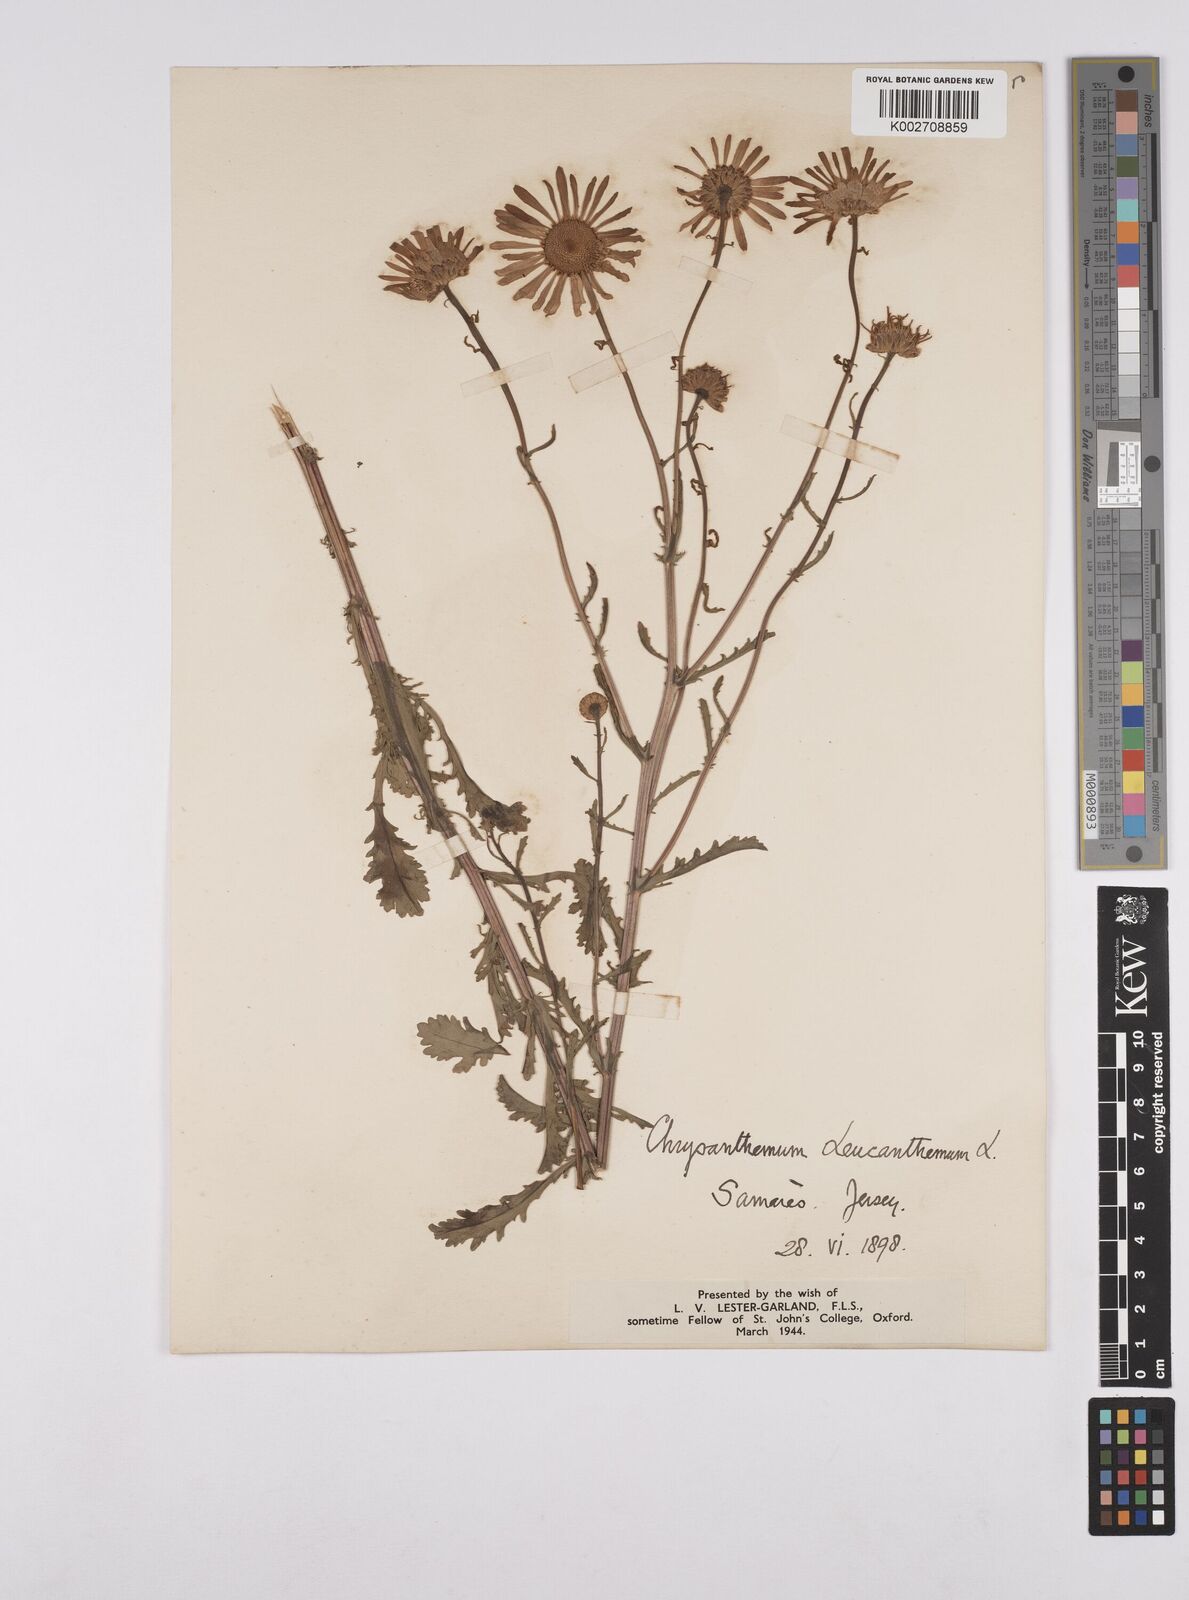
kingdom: Plantae
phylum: Tracheophyta
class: Magnoliopsida
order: Asterales
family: Asteraceae
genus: Leucanthemum
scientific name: Leucanthemum
